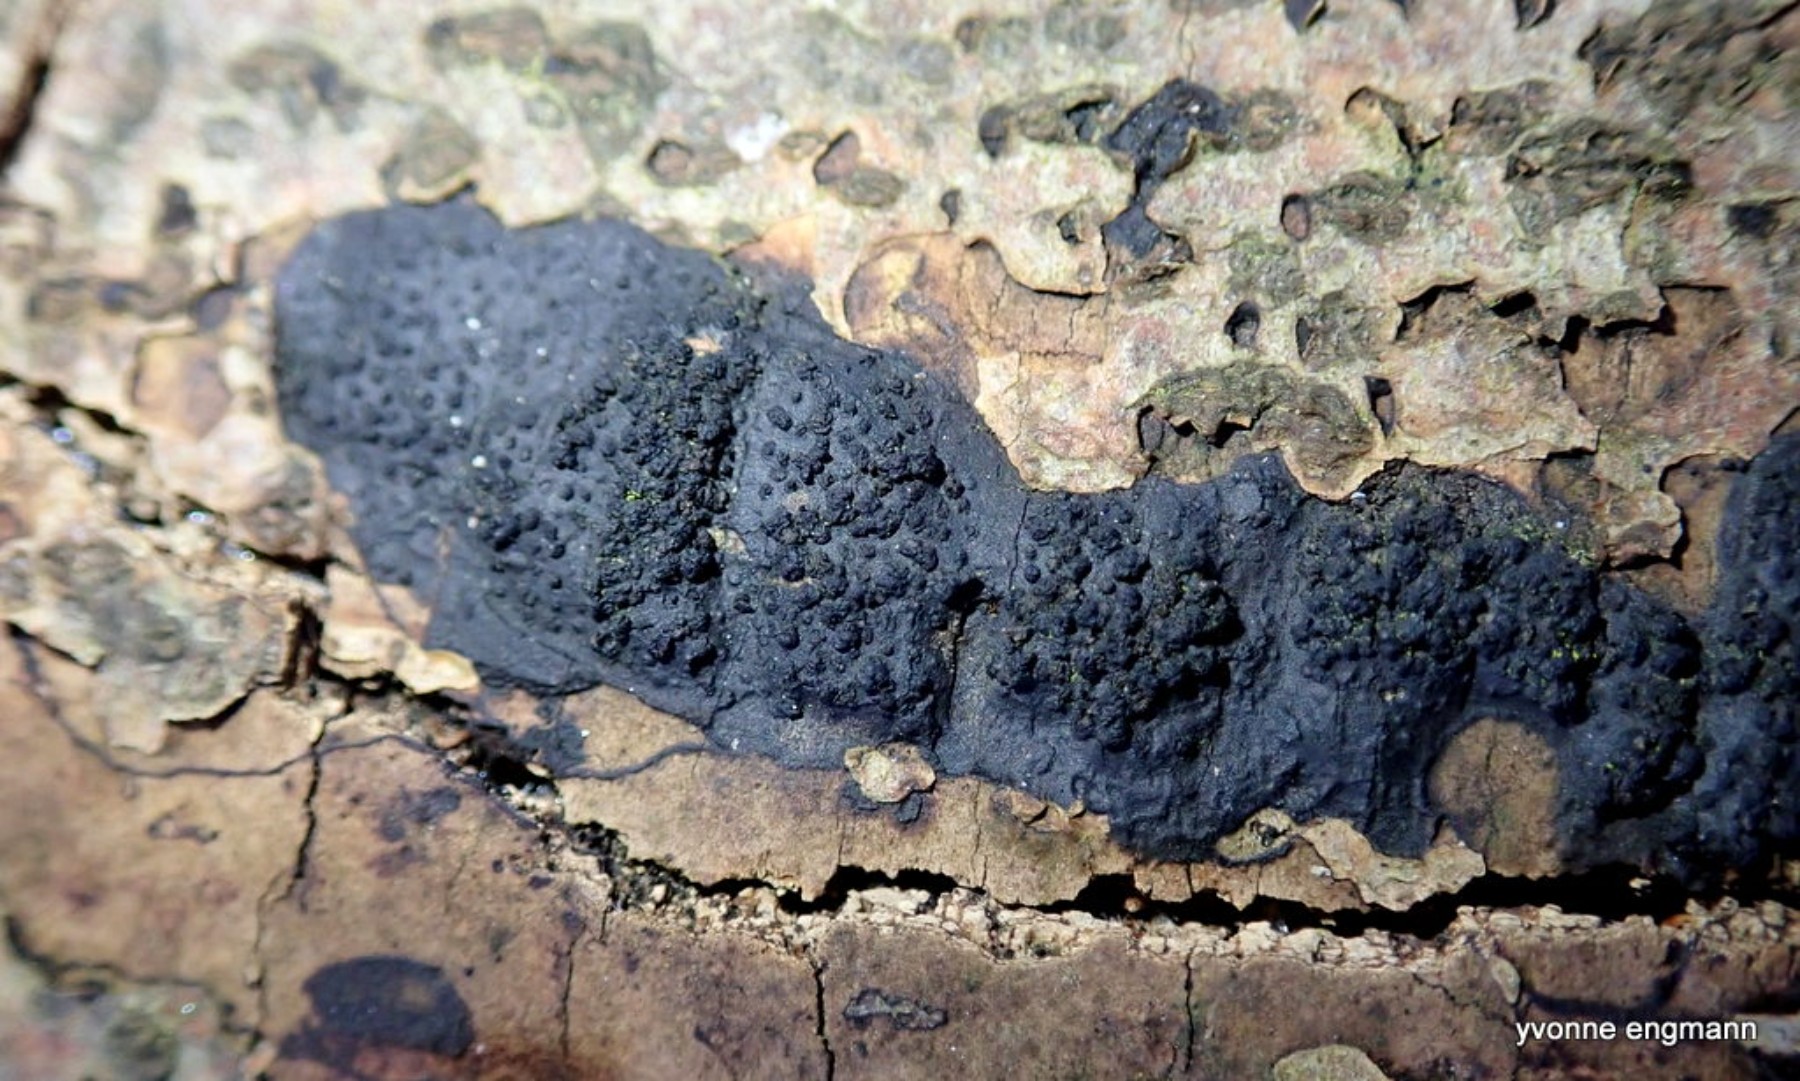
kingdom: Fungi
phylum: Ascomycota
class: Sordariomycetes
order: Xylariales
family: Diatrypaceae
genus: Eutypa
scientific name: Eutypa spinosa
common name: grov kulskorpe
